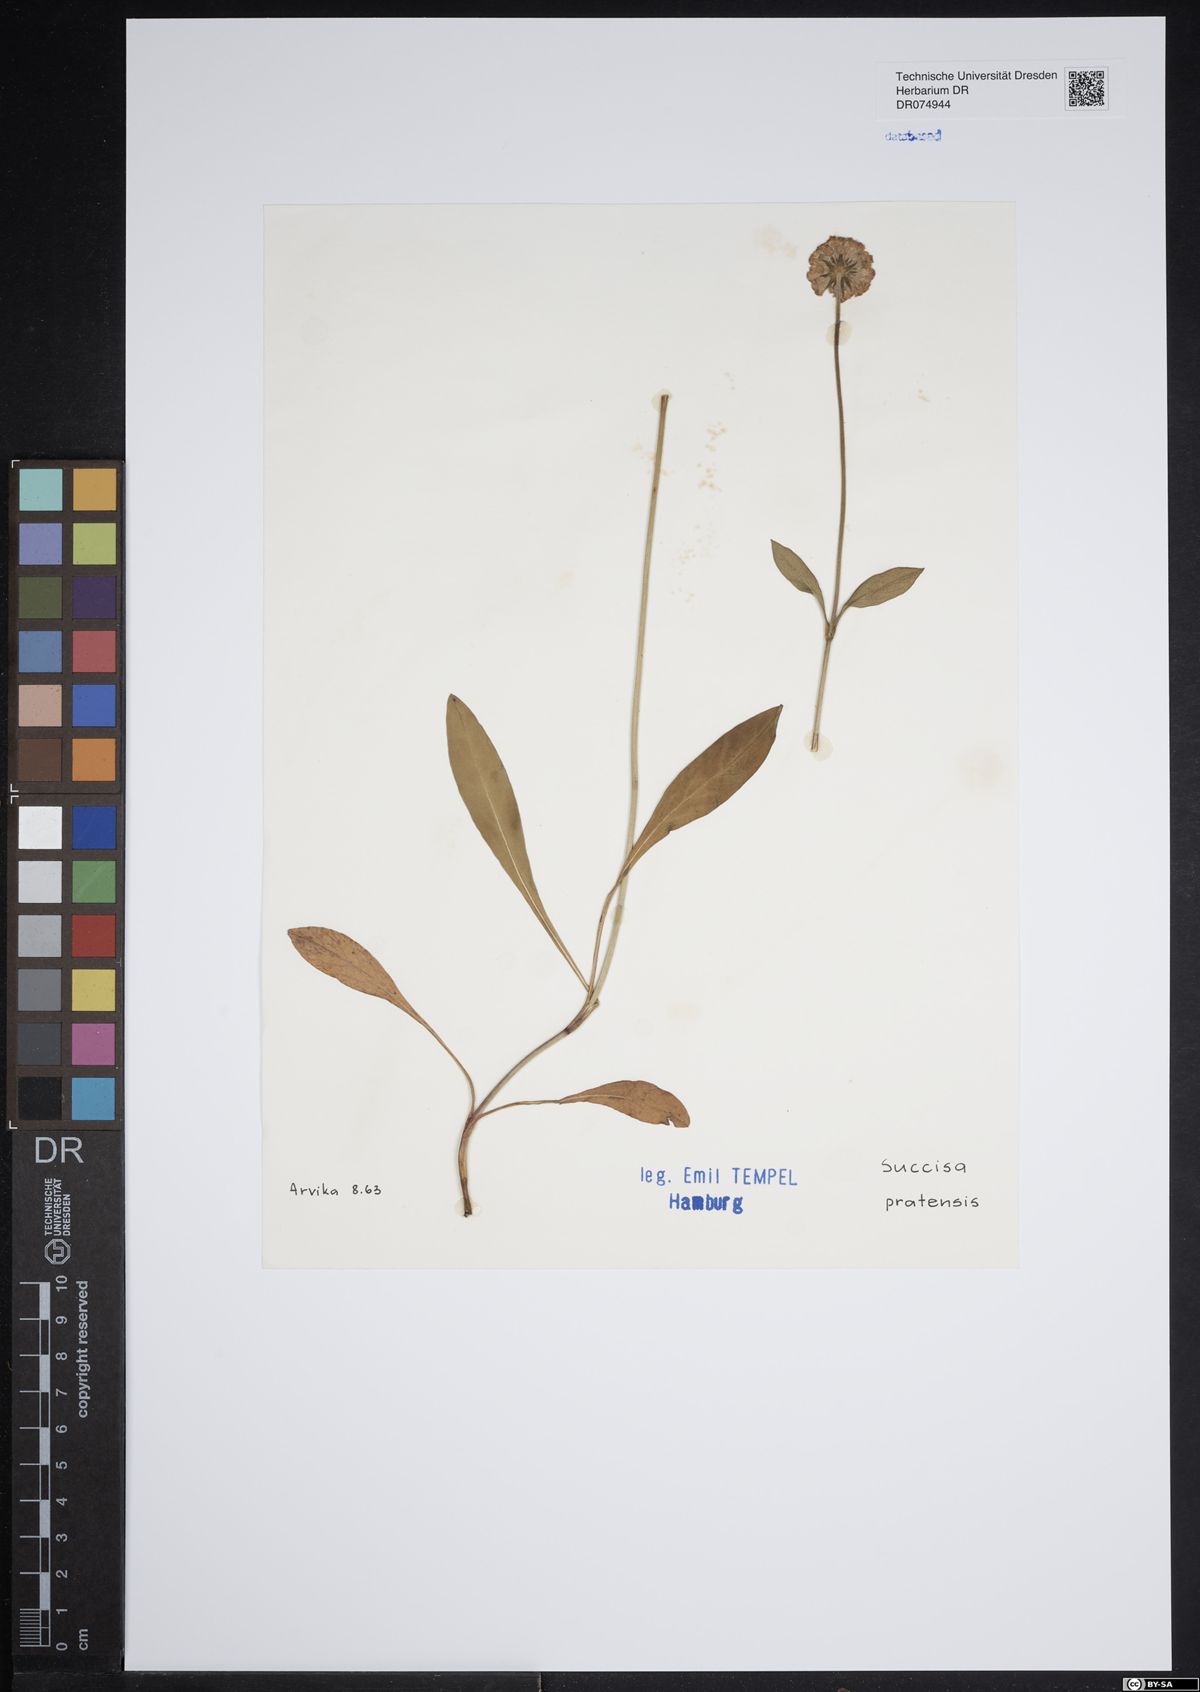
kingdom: Plantae
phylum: Tracheophyta
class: Magnoliopsida
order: Dipsacales
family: Caprifoliaceae
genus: Succisa
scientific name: Succisa pratensis
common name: Devil's-bit
